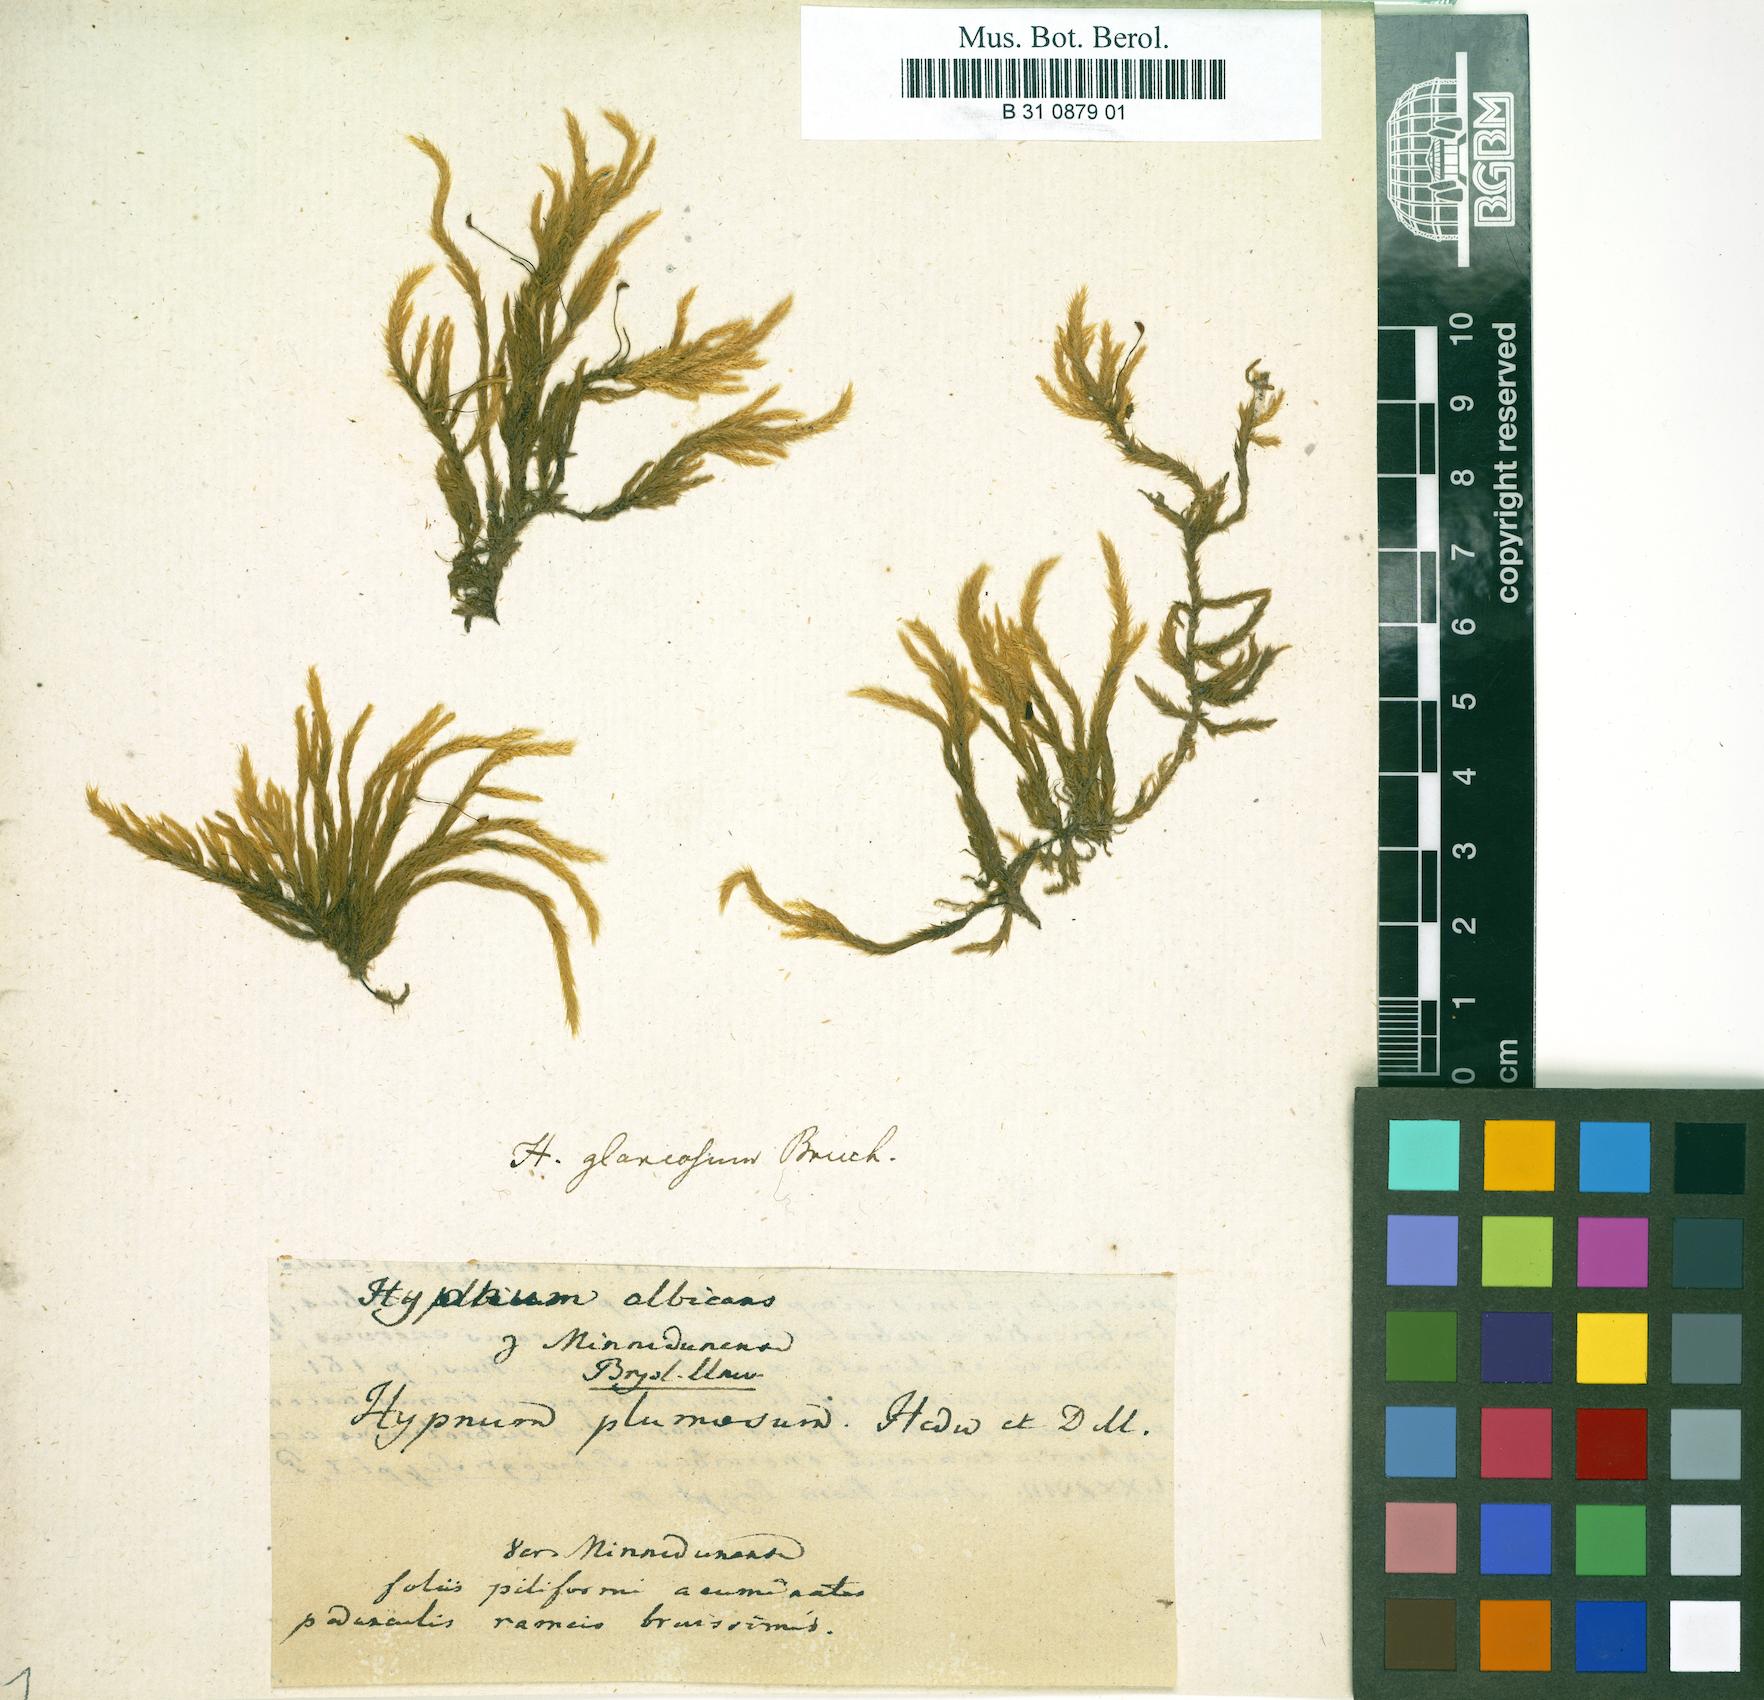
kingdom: Plantae
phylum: Bryophyta
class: Bryopsida
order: Hypnales
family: Brachytheciaceae
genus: Brachythecium
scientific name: Brachythecium albicans
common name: Whitish ragged moss
